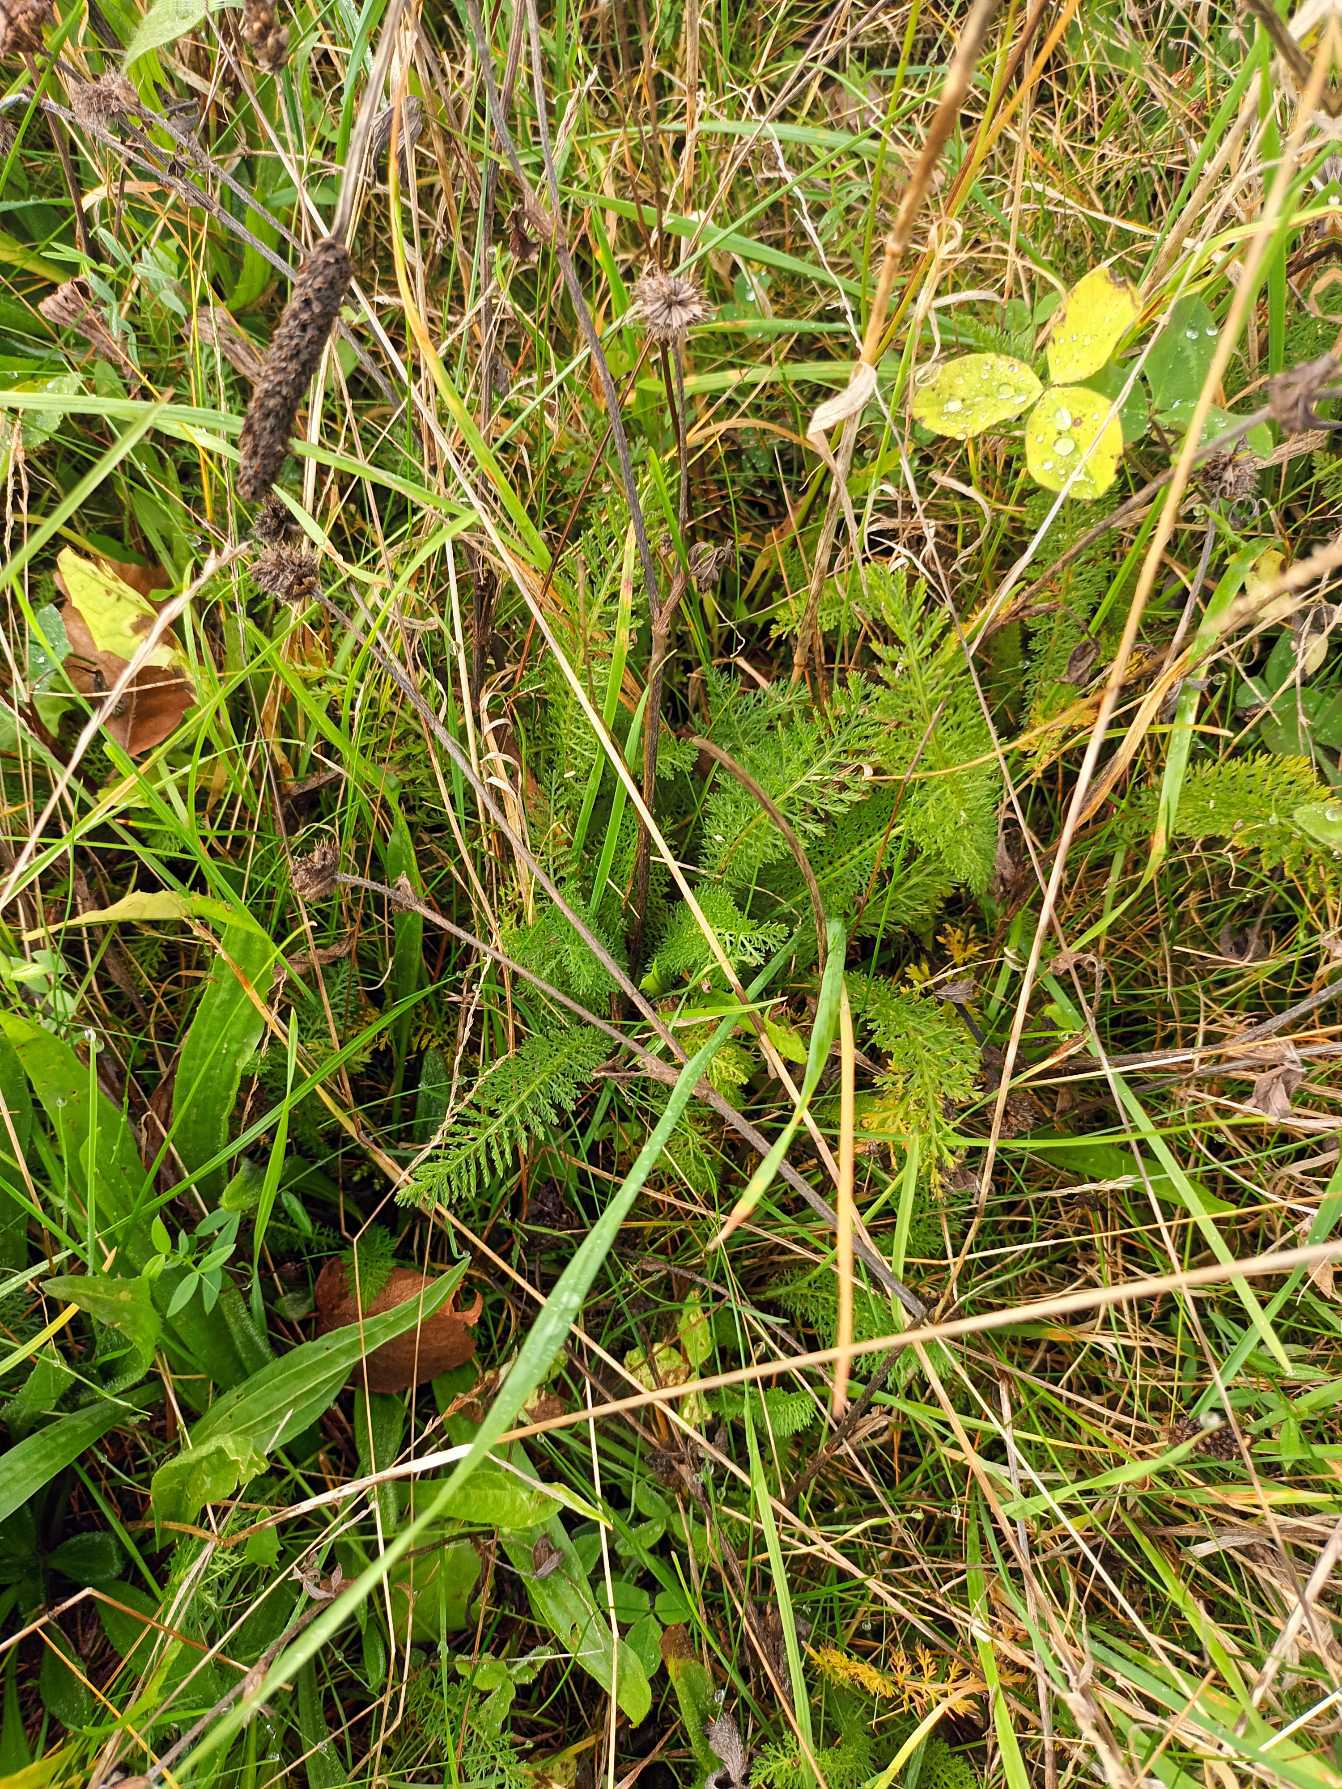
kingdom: Plantae
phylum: Tracheophyta
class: Magnoliopsida
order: Asterales
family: Asteraceae
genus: Achillea
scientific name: Achillea millefolium
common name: Almindelig røllike
